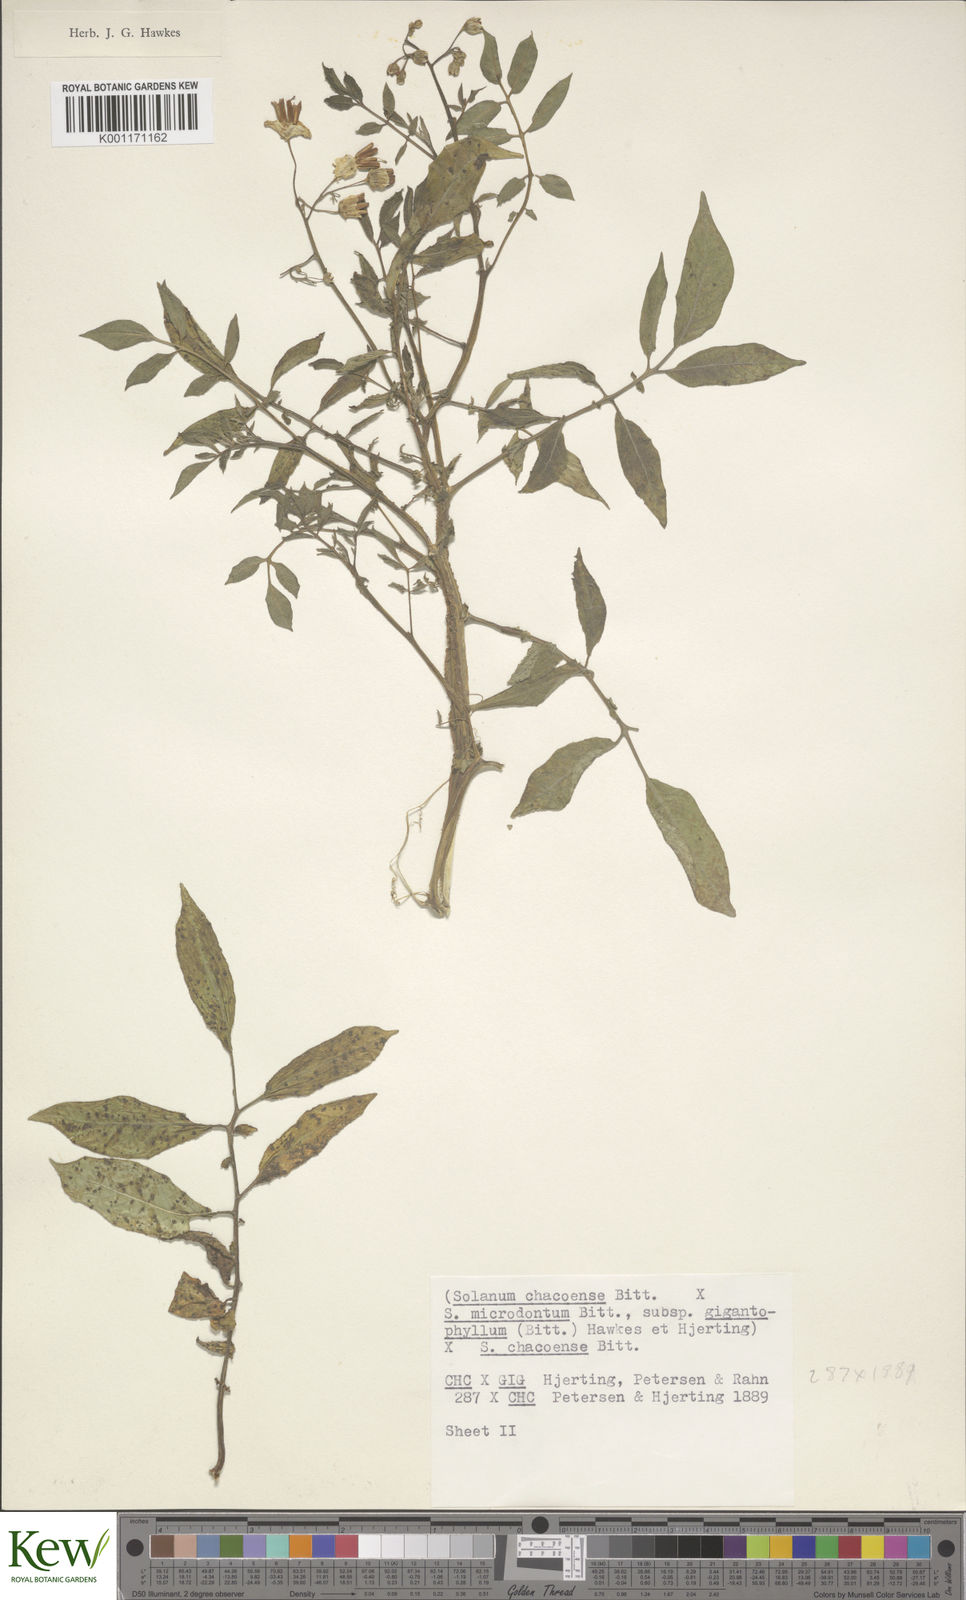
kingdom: Plantae
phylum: Tracheophyta
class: Magnoliopsida
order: Solanales
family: Solanaceae
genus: Solanum
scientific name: Solanum microdontum
